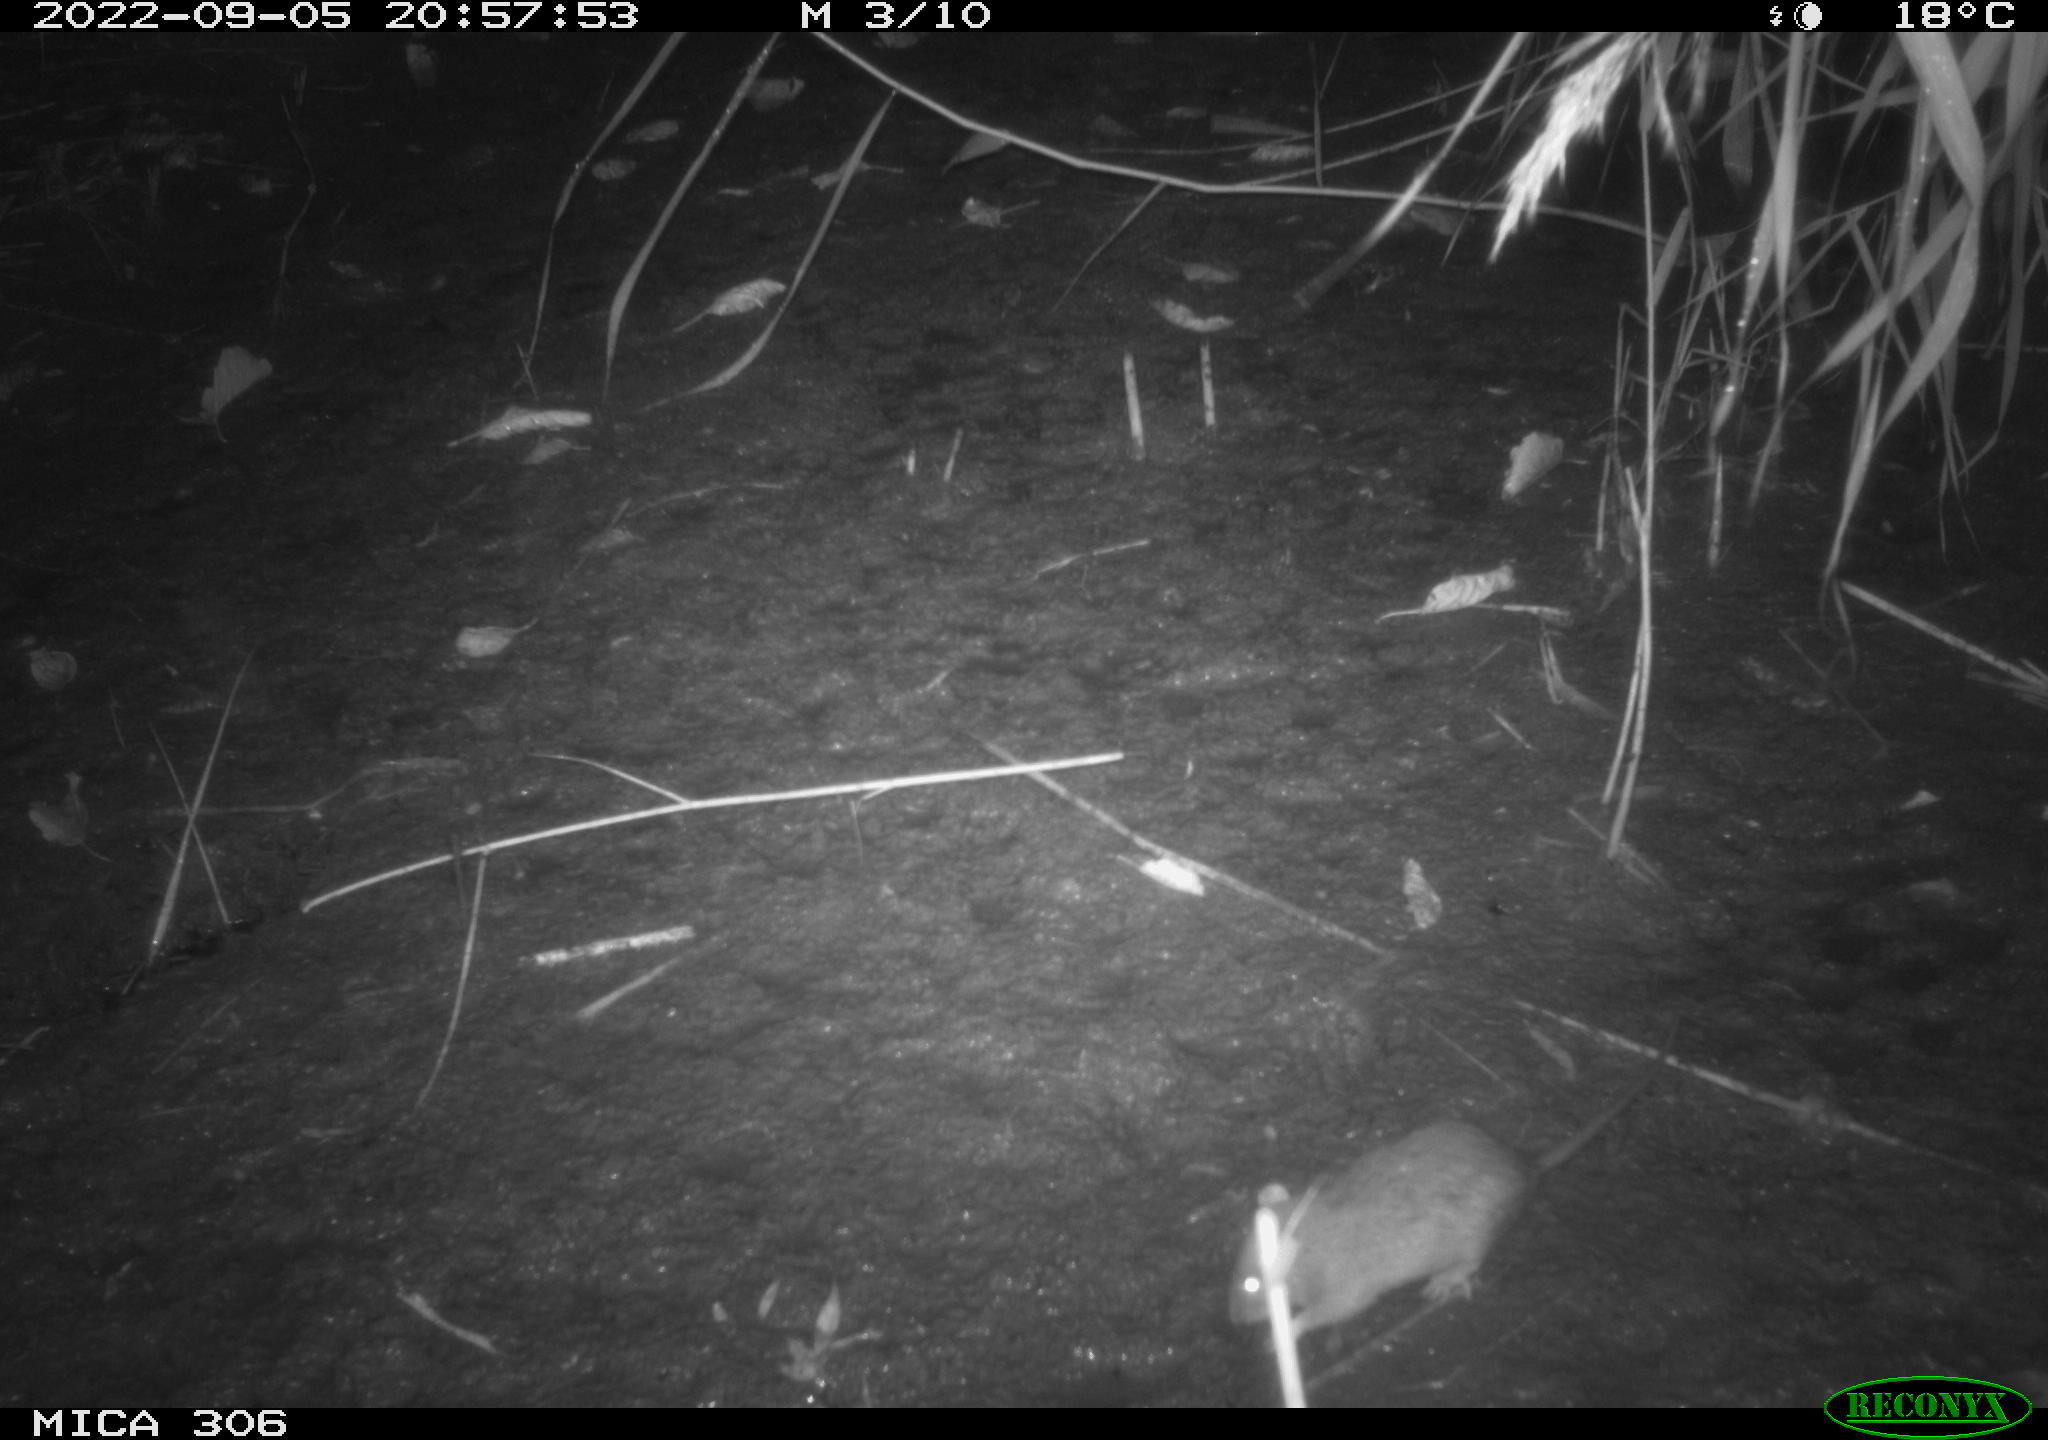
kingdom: Animalia
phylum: Chordata
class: Mammalia
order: Rodentia
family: Muridae
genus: Rattus
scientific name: Rattus norvegicus
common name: Brown rat
